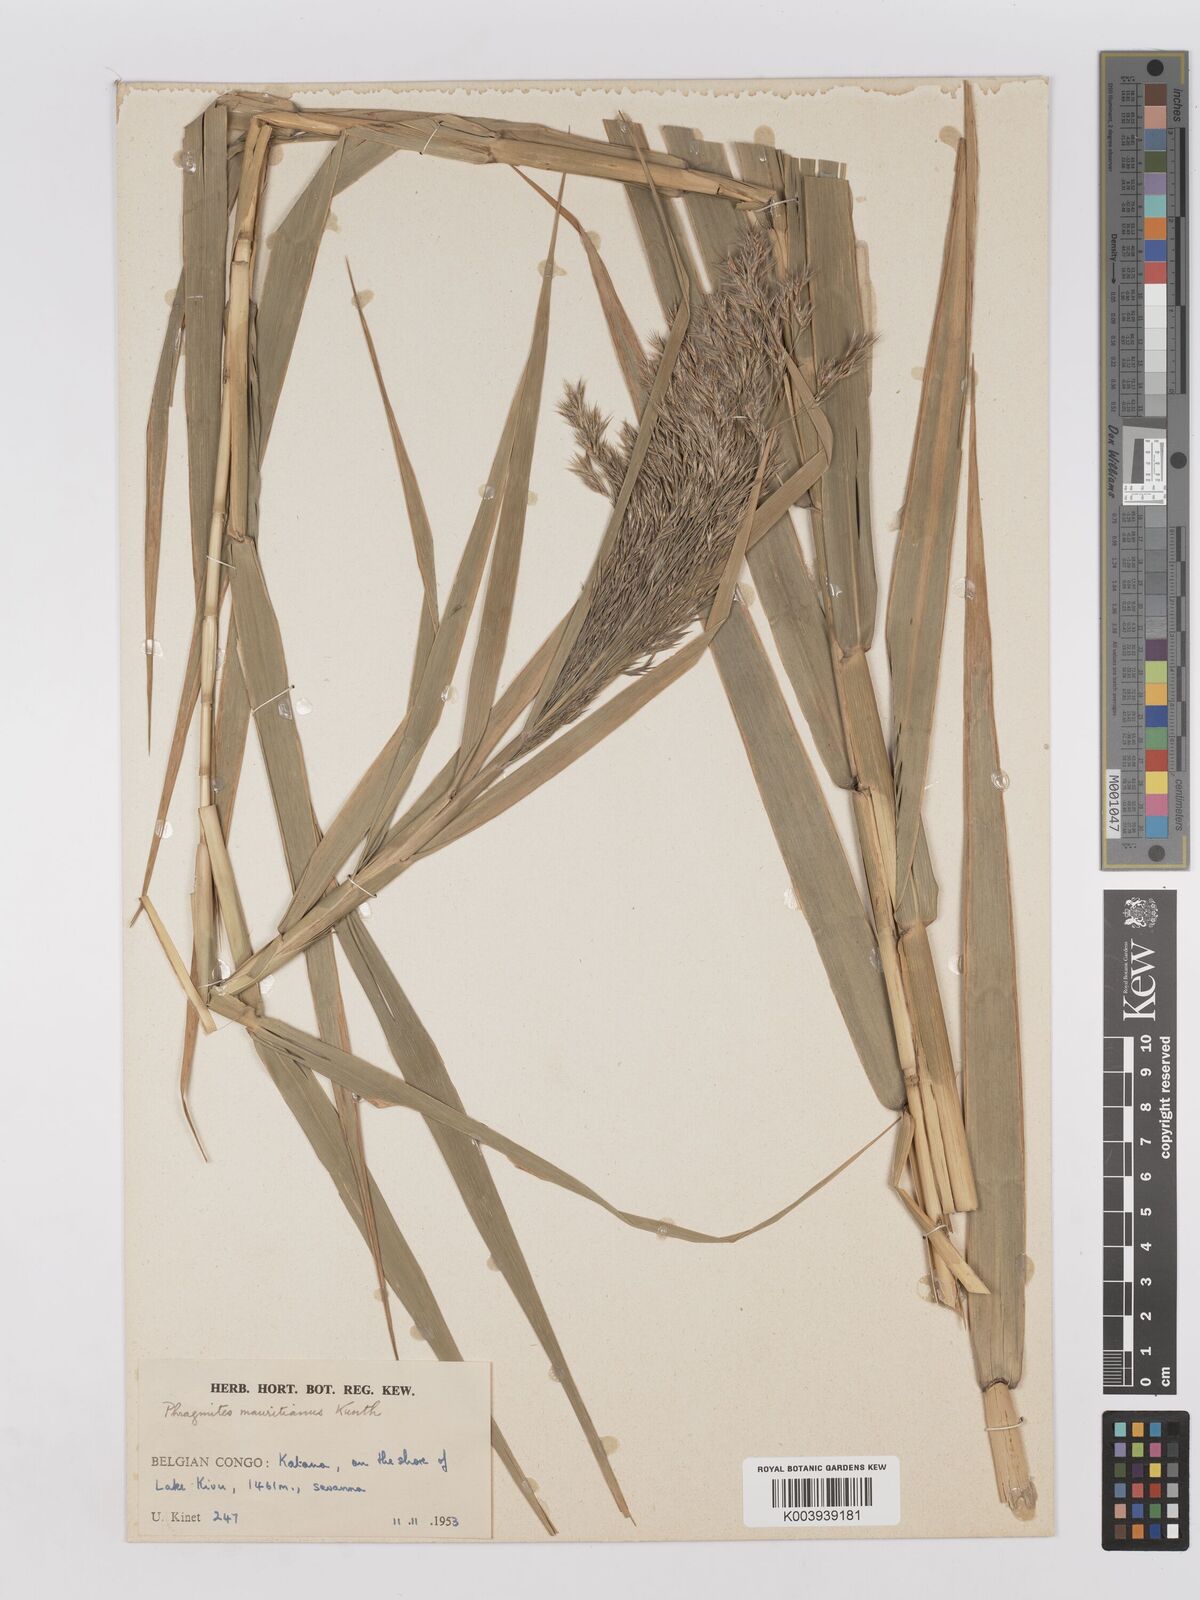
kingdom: Plantae
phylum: Tracheophyta
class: Liliopsida
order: Poales
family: Poaceae
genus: Phragmites
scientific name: Phragmites mauritianus
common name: Reed grass
